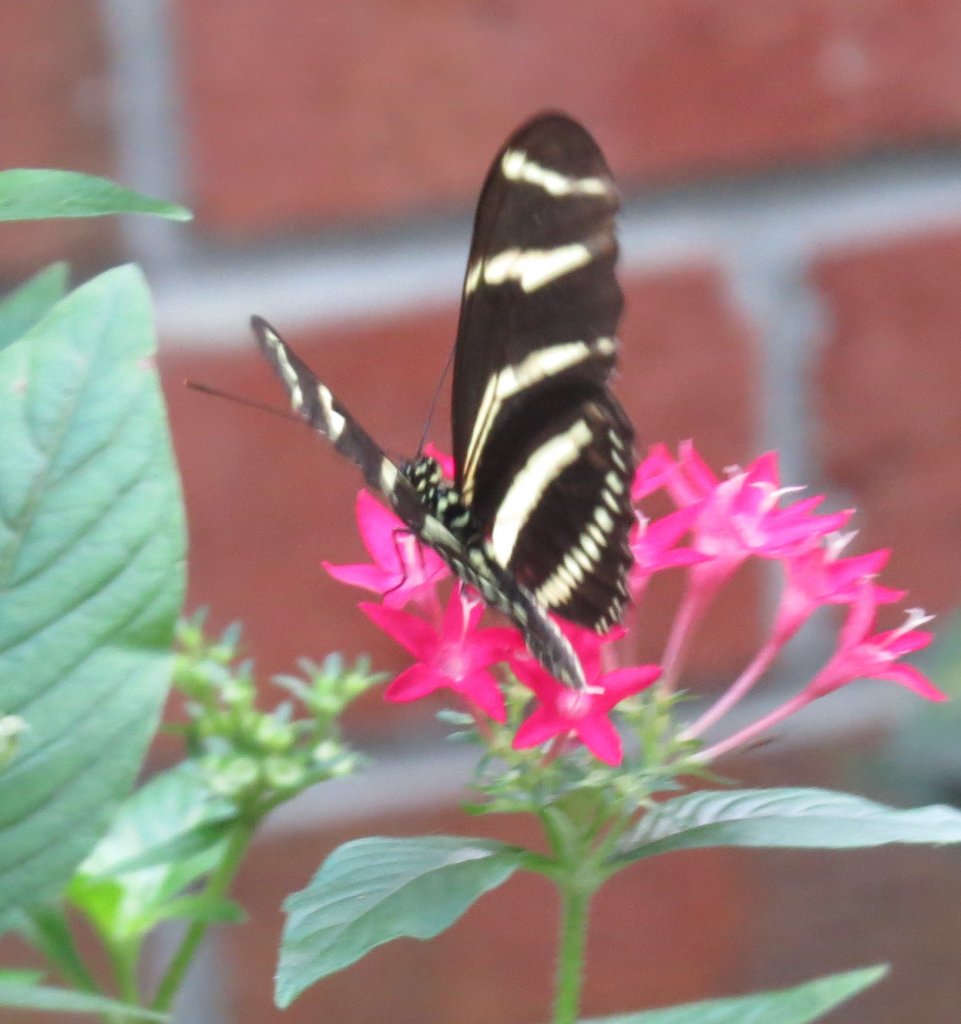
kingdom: Animalia
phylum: Arthropoda
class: Insecta
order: Lepidoptera
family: Nymphalidae
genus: Heliconius
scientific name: Heliconius charithonia
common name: Zebra Longwing
